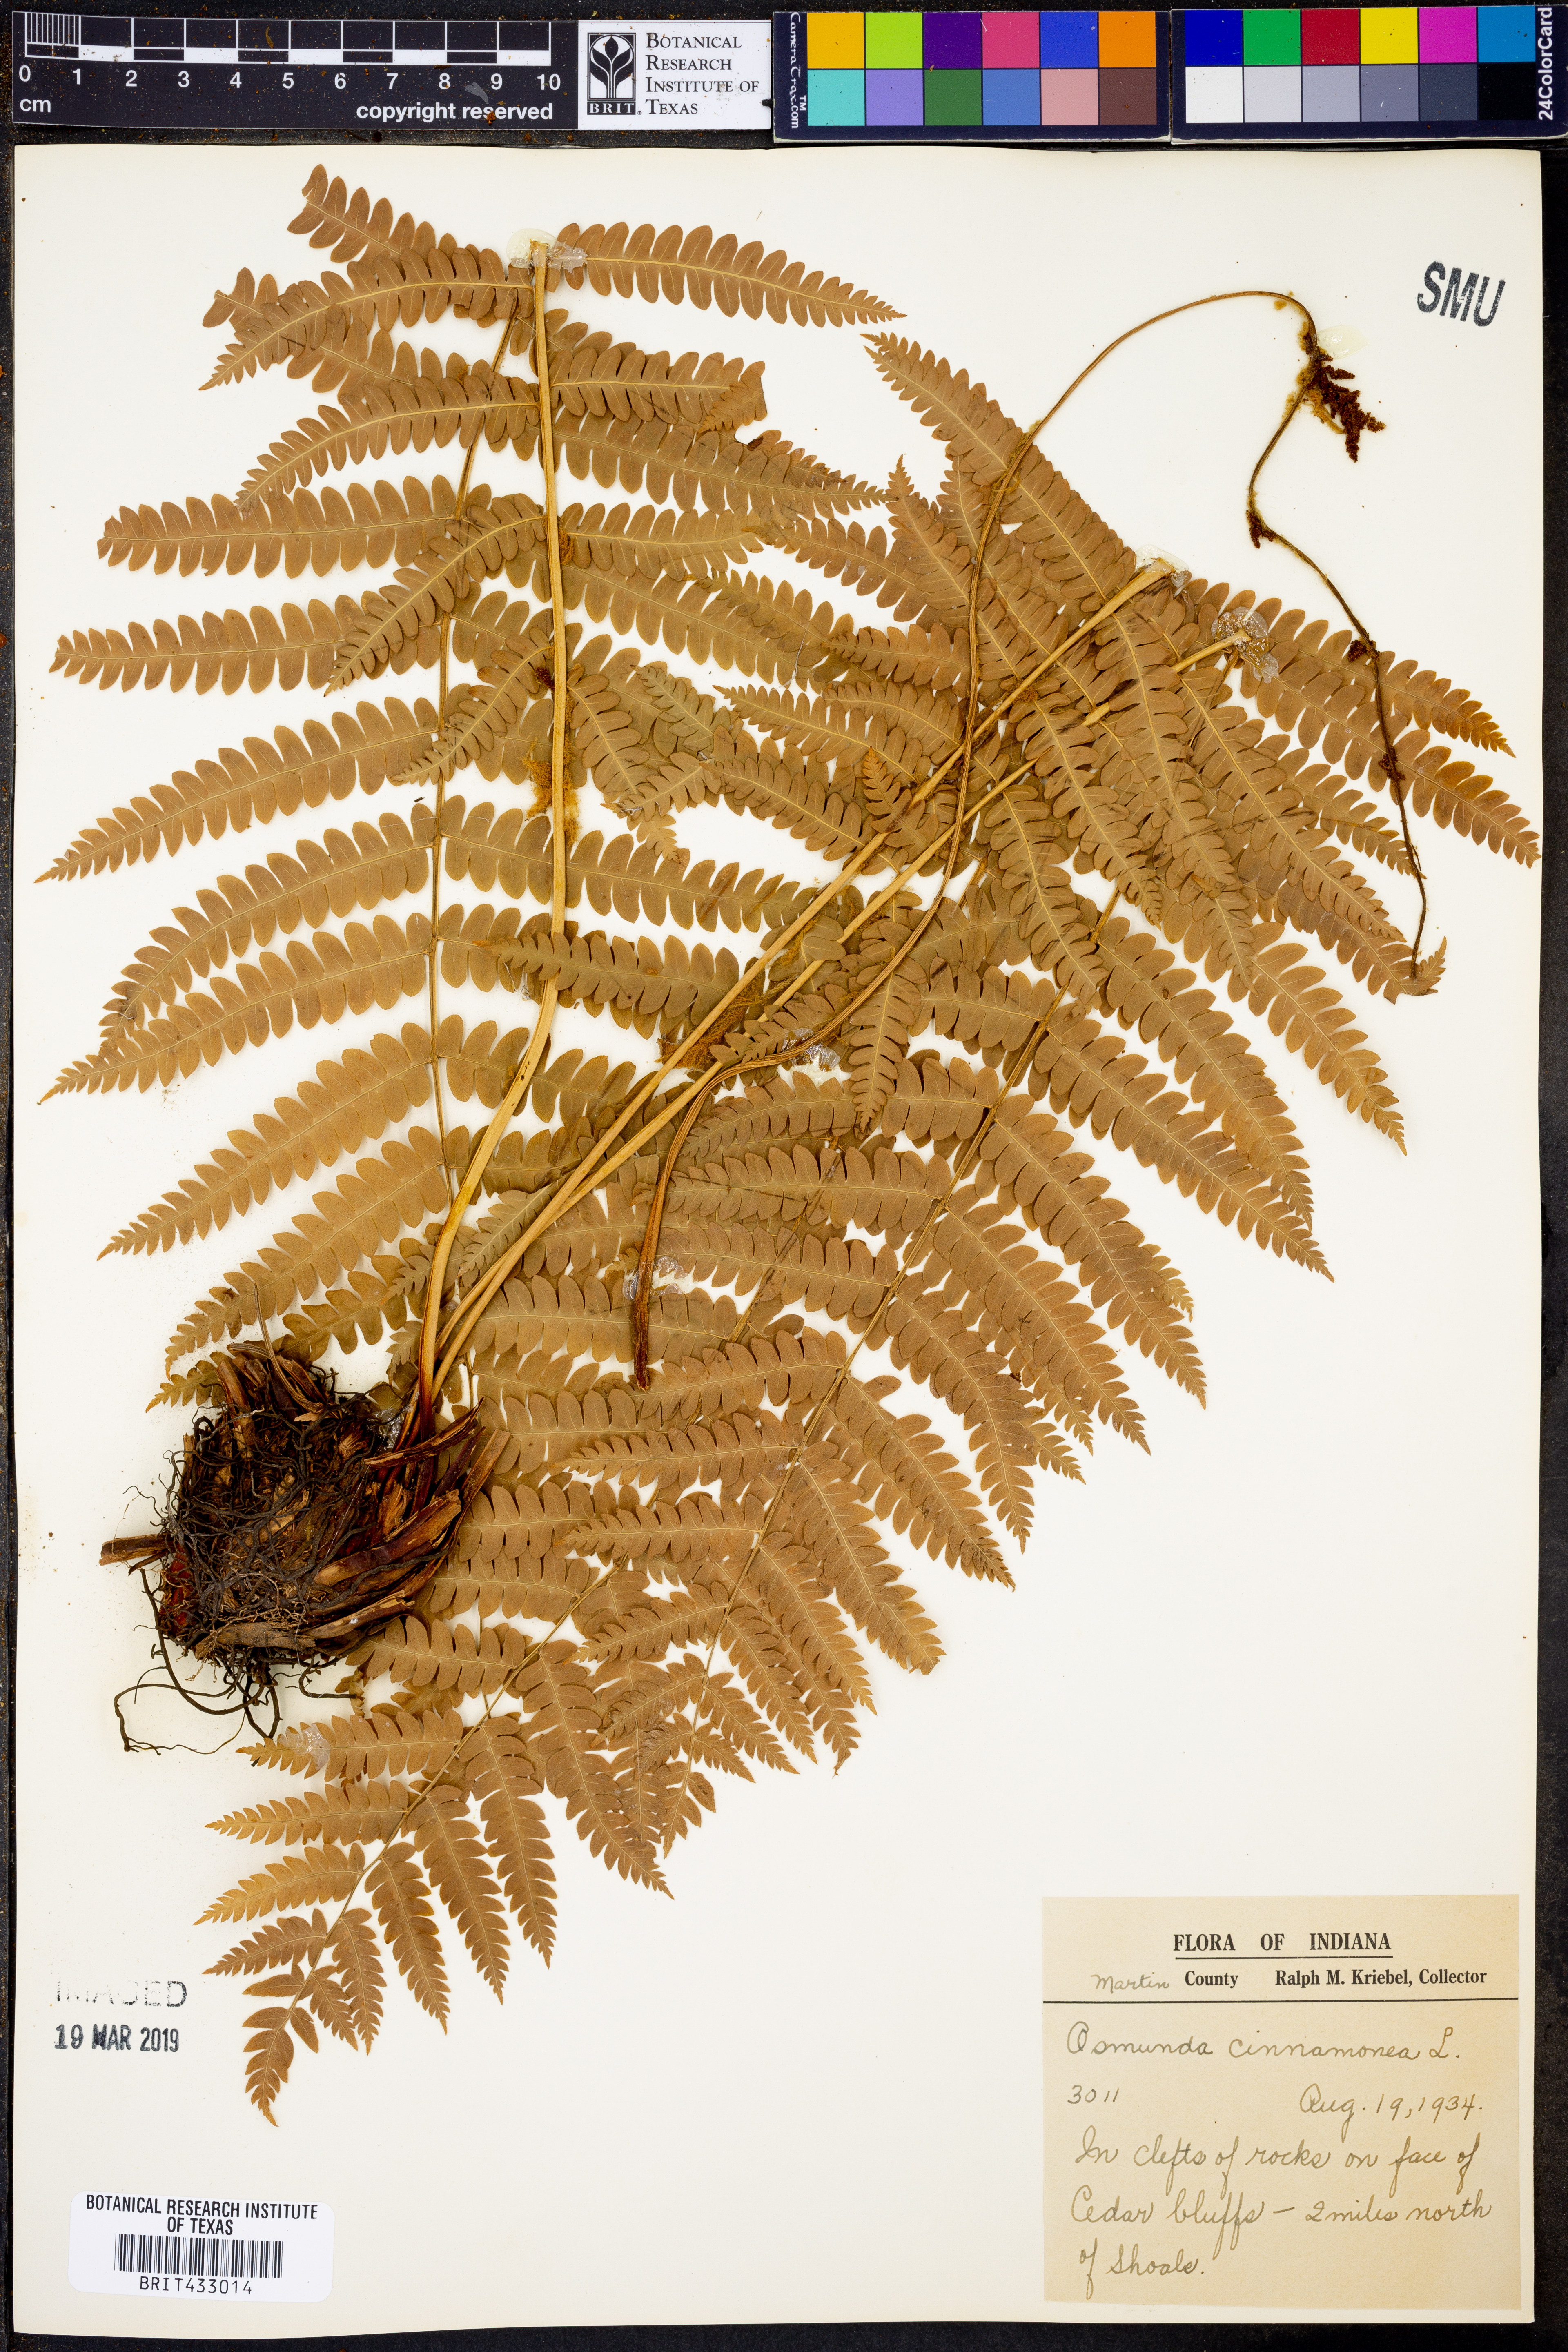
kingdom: Plantae
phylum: Tracheophyta
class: Polypodiopsida
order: Osmundales
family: Osmundaceae
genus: Osmundastrum
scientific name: Osmundastrum cinnamomeum
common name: Cinnamon fern
